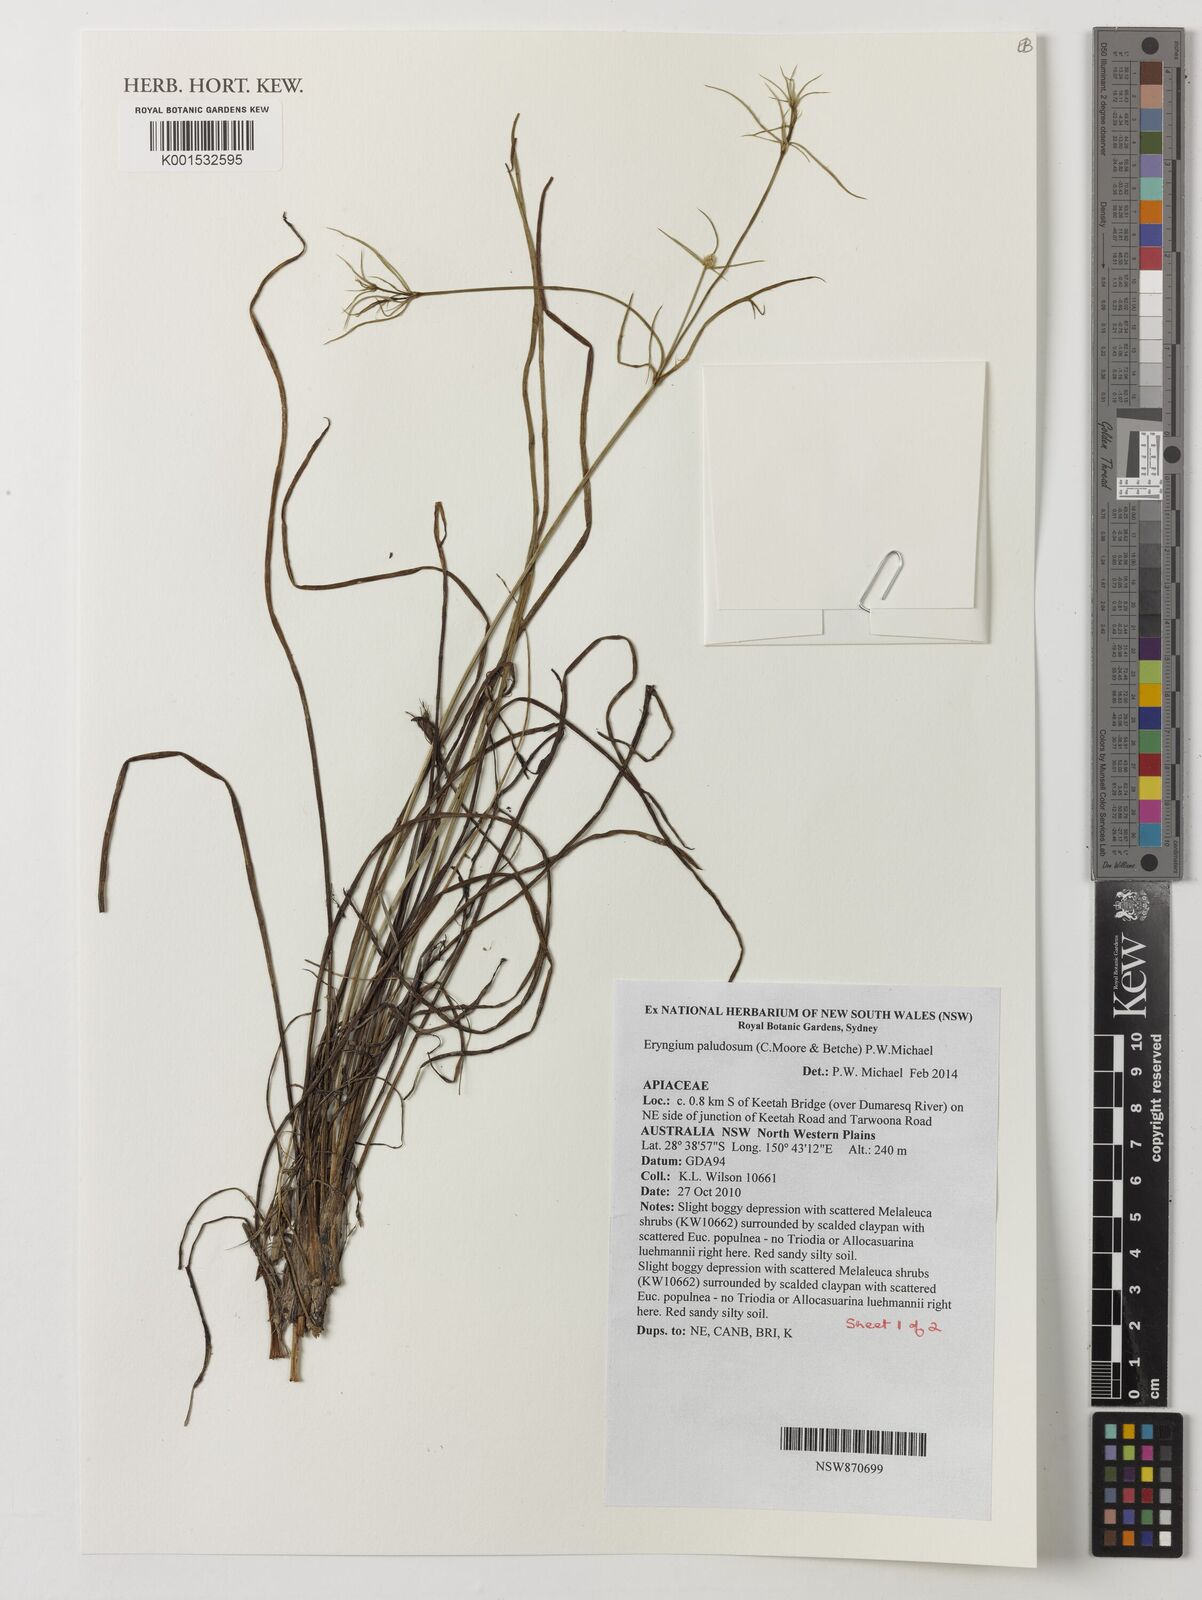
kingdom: Plantae
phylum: Tracheophyta
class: Magnoliopsida
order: Apiales
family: Apiaceae
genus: Eryngium
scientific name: Eryngium paludosum
